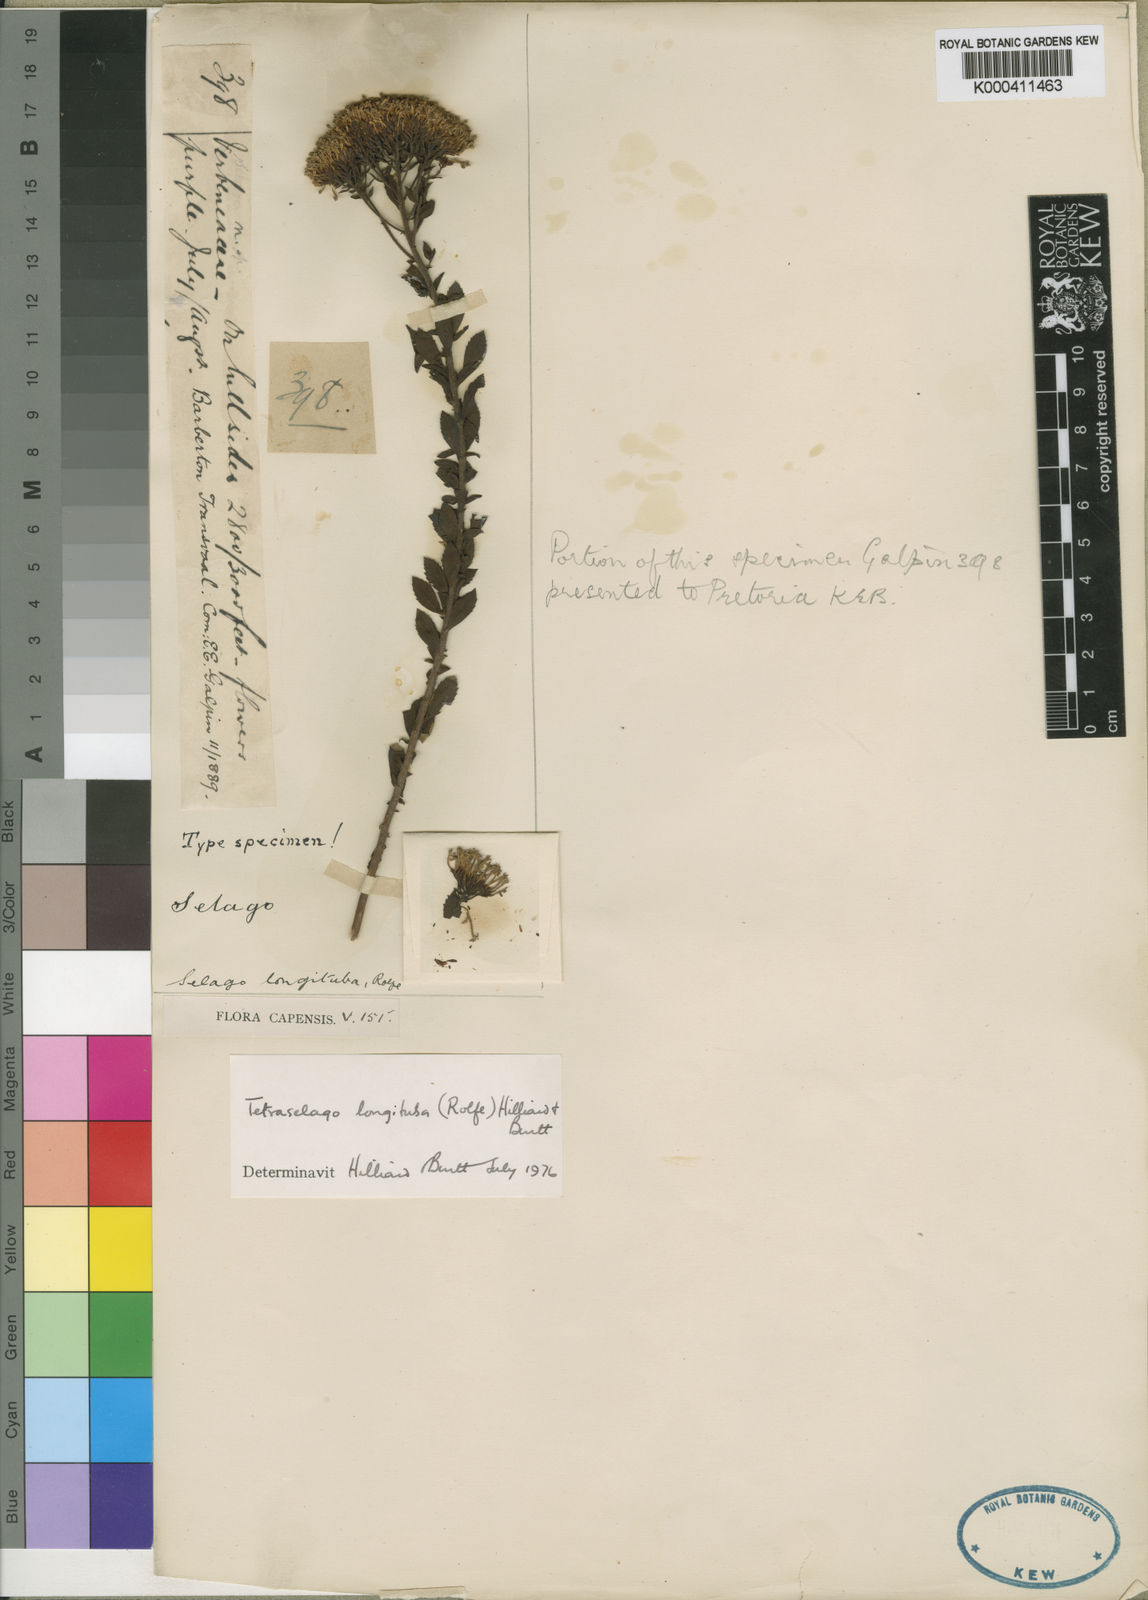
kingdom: Plantae
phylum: Tracheophyta
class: Magnoliopsida
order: Lamiales
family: Scrophulariaceae
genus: Tetraselago
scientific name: Tetraselago longituba
